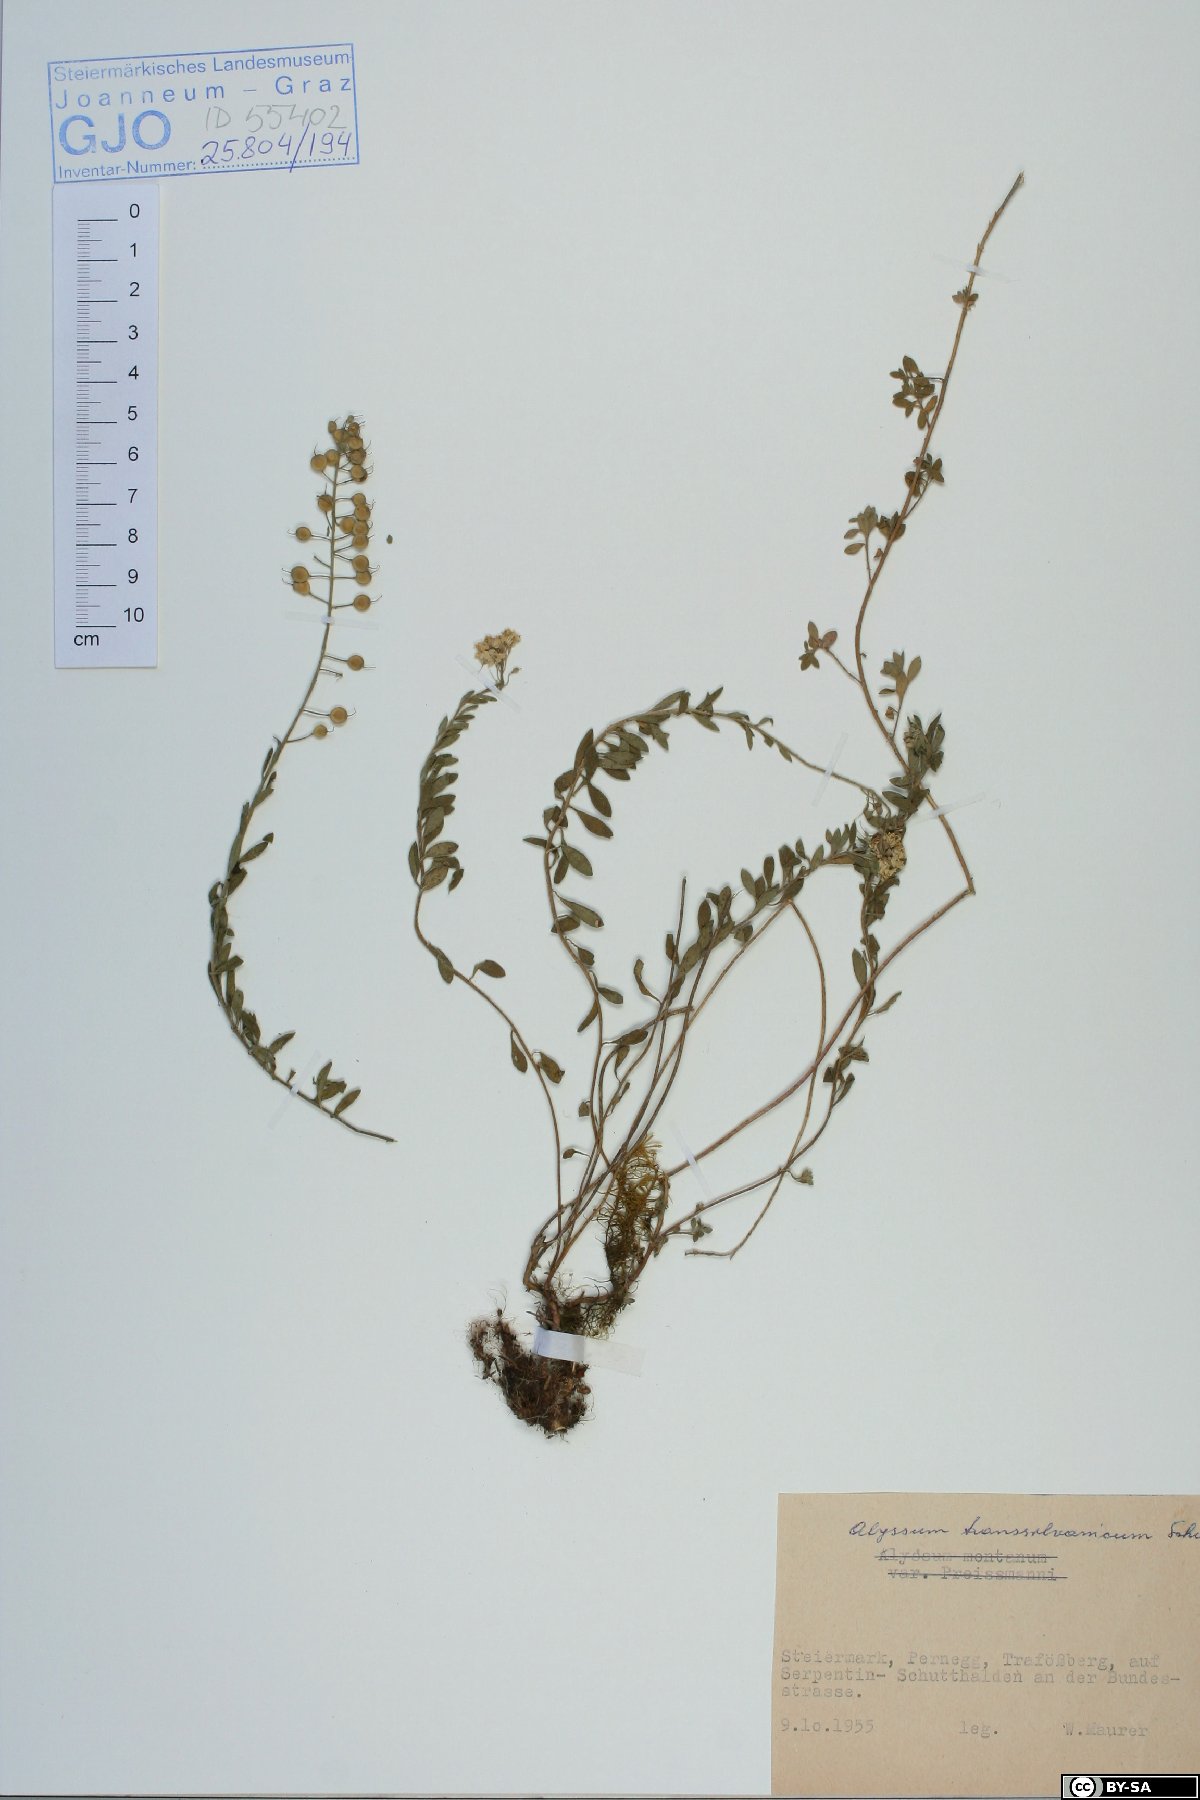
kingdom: Plantae
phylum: Tracheophyta
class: Magnoliopsida
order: Brassicales
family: Brassicaceae
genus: Alyssum
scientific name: Alyssum repens
